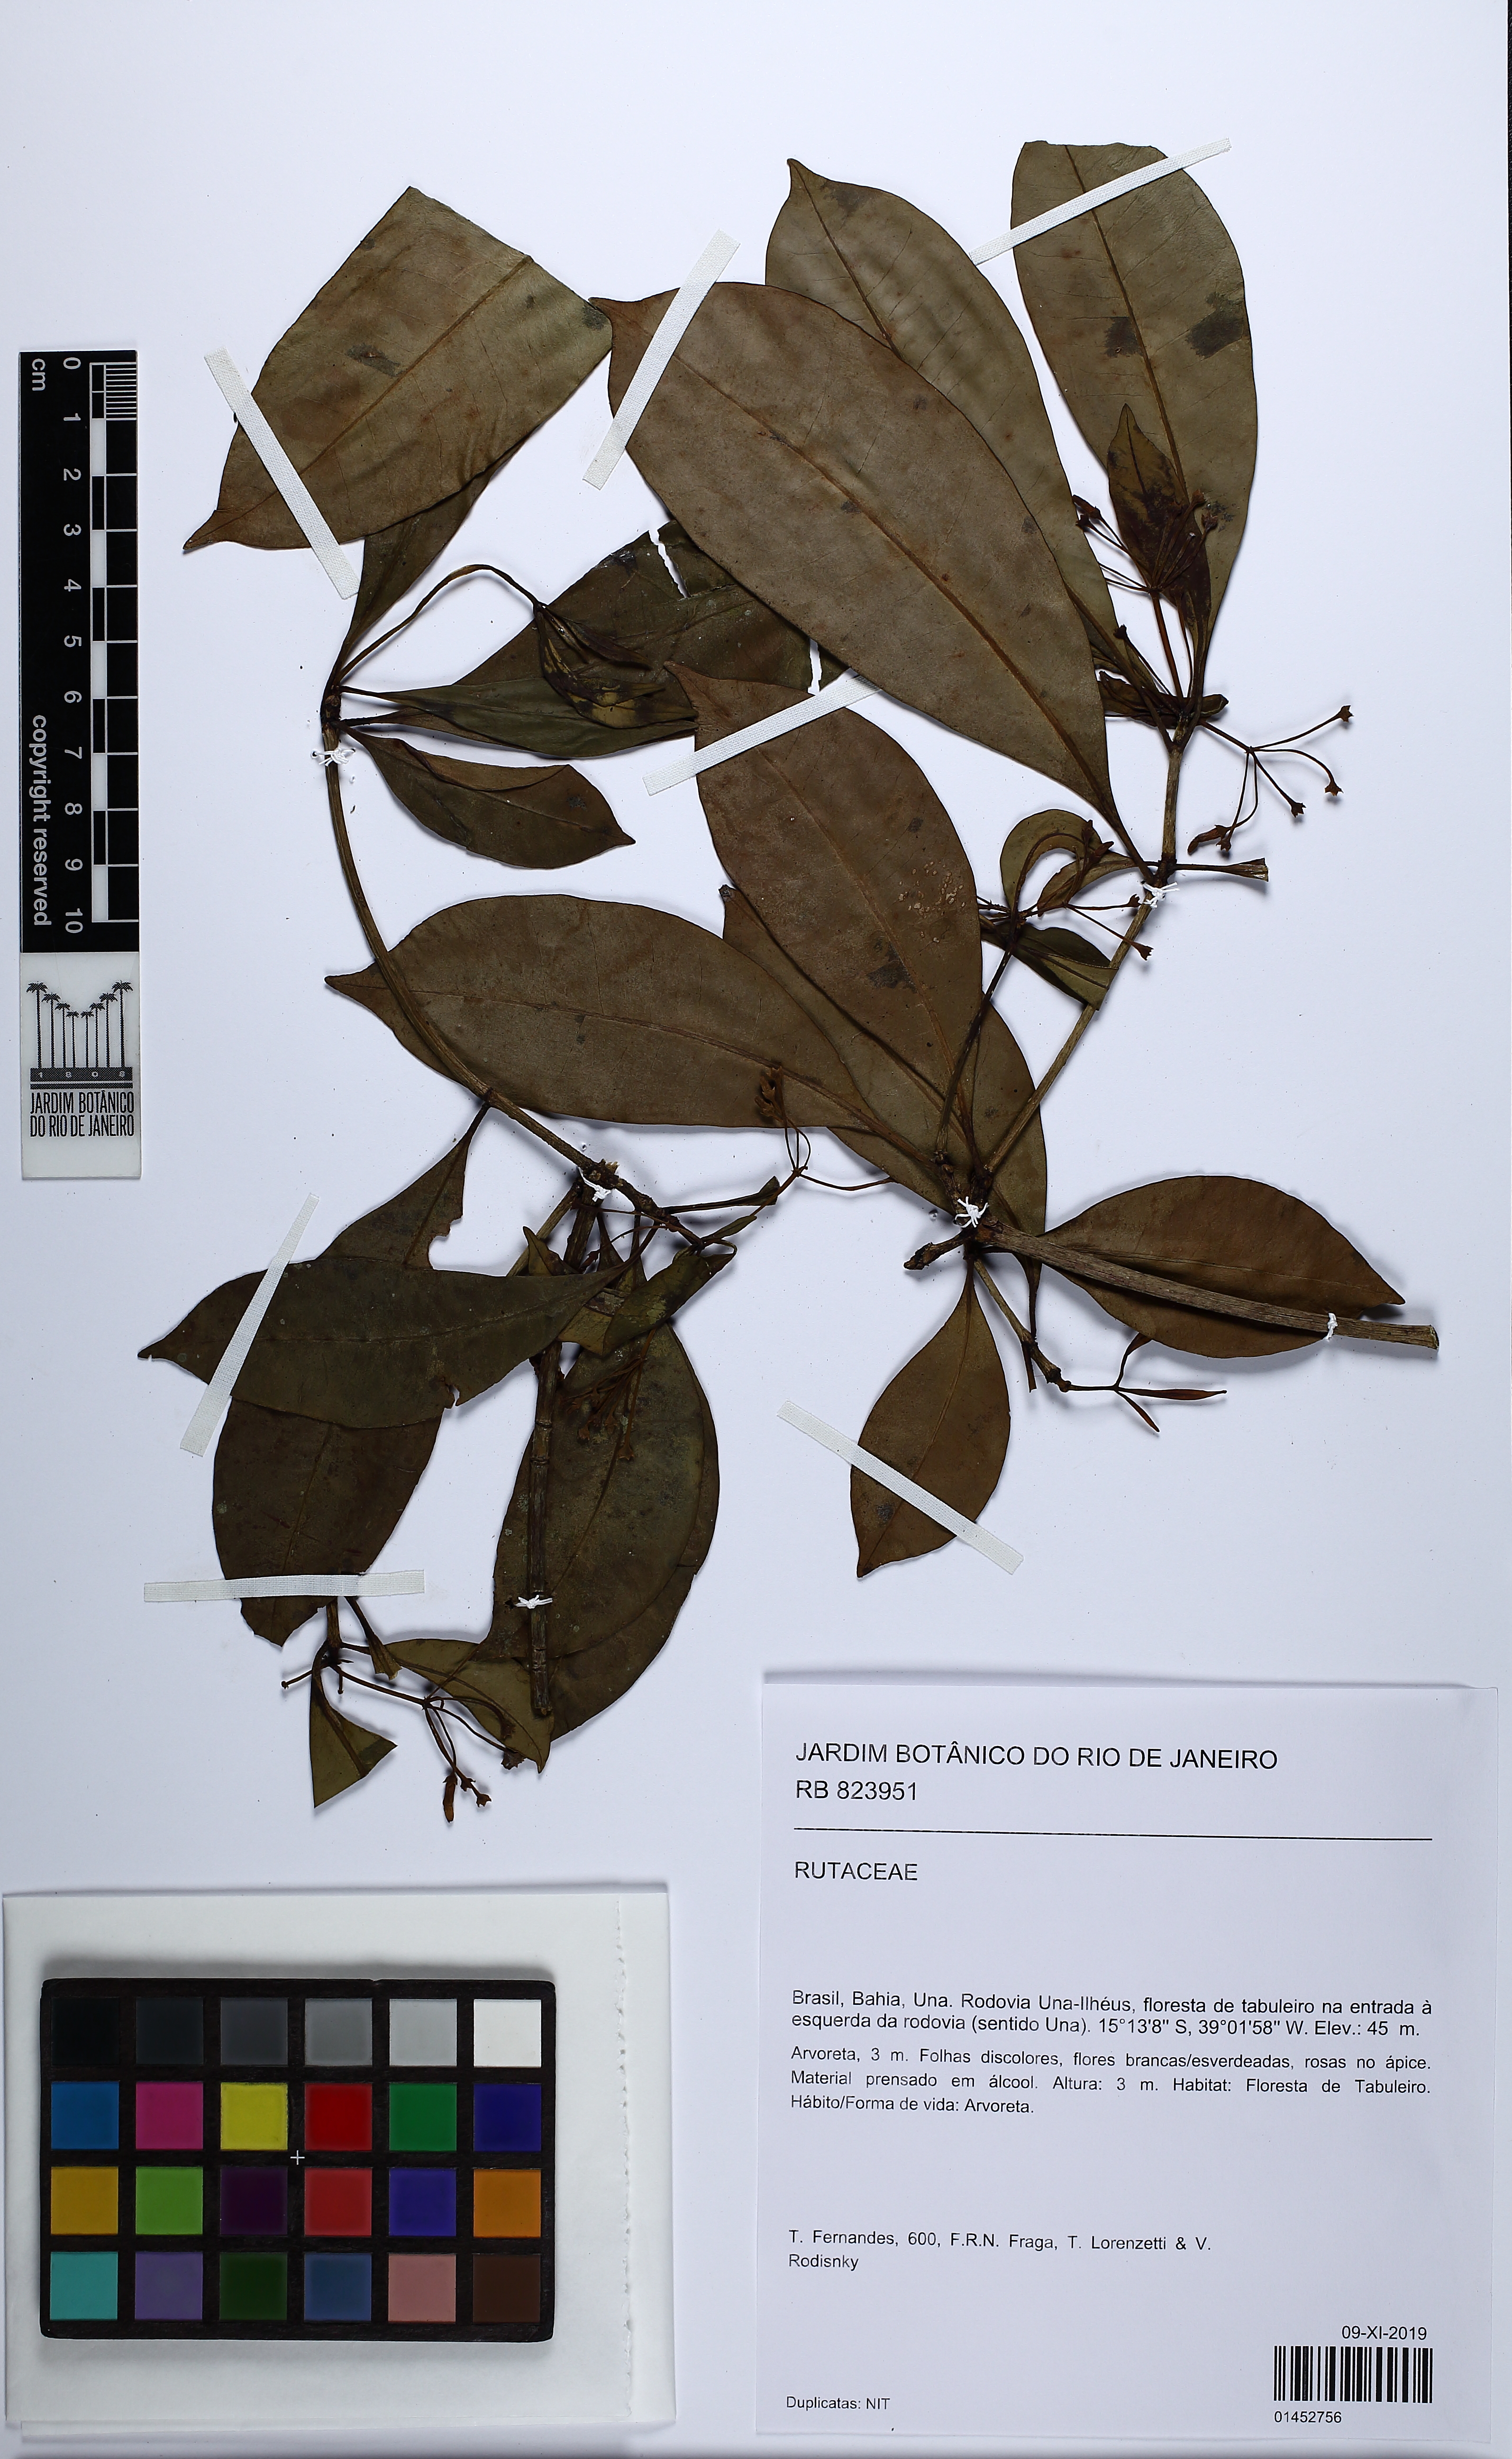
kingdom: Plantae
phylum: Tracheophyta
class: Magnoliopsida
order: Sapindales
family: Rutaceae
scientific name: Rutaceae
